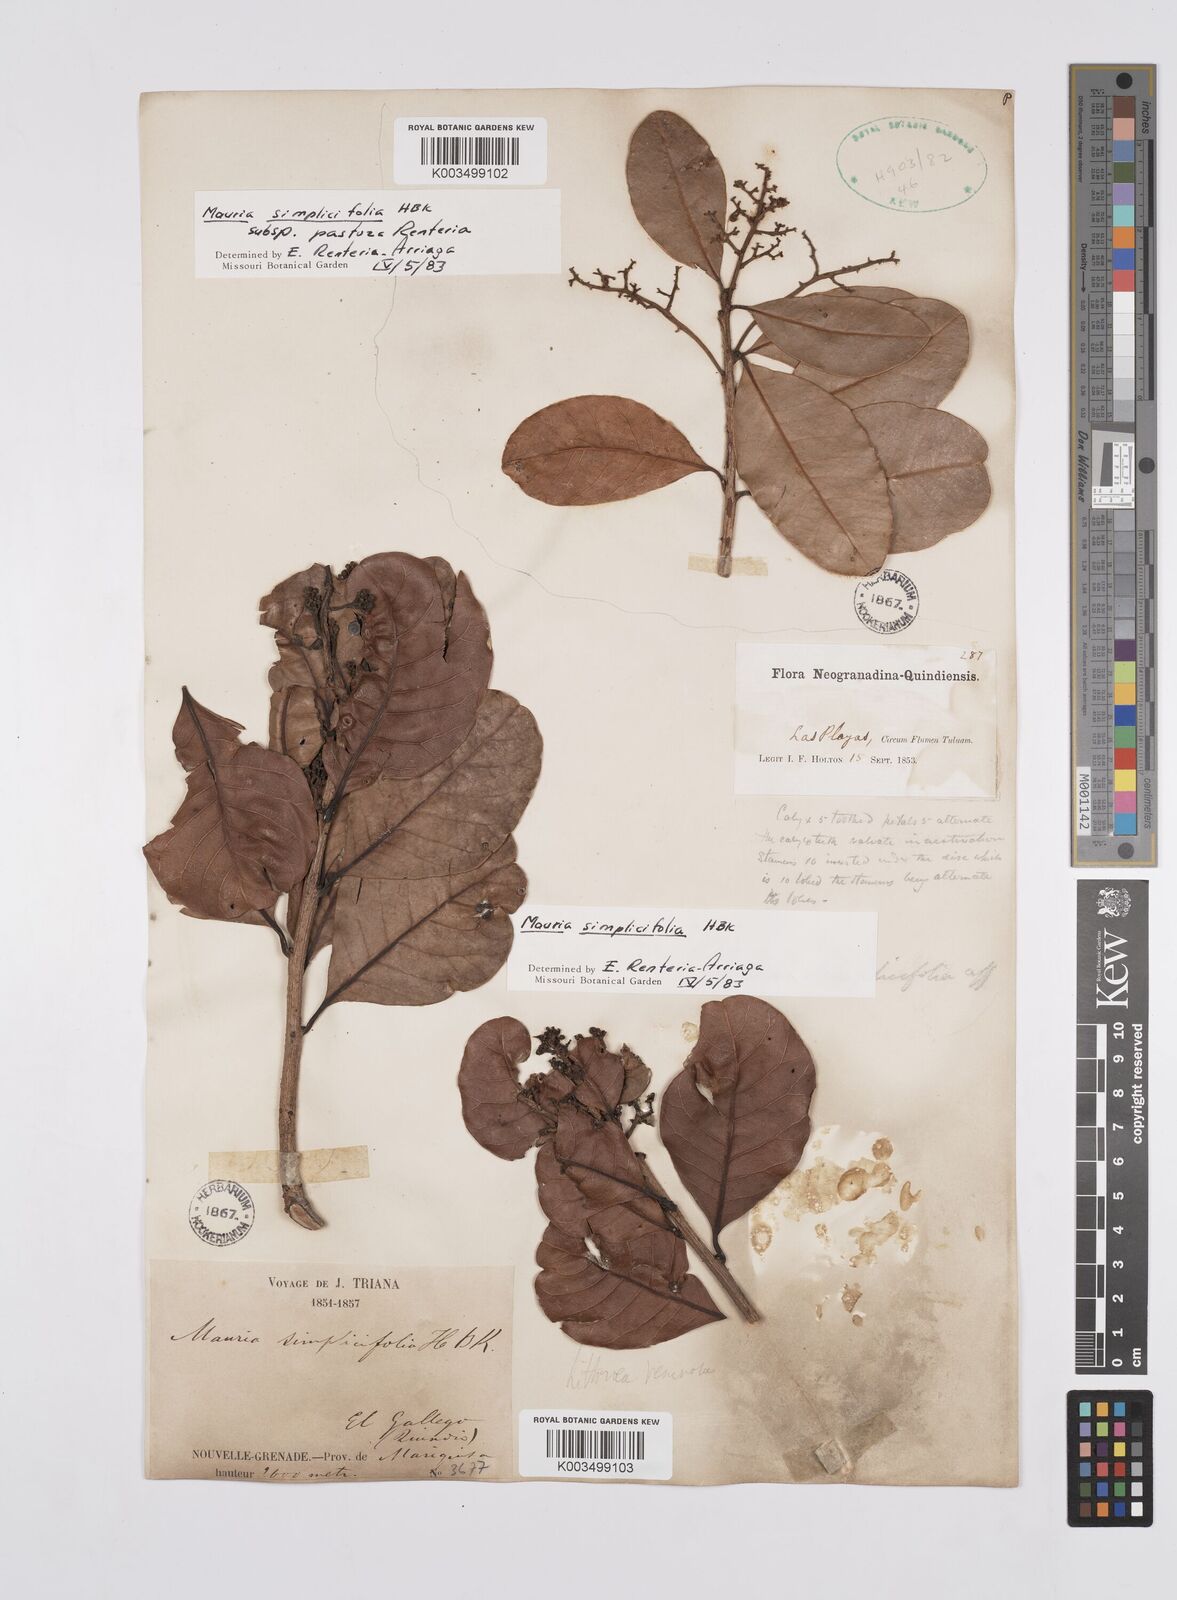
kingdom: Plantae
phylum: Tracheophyta
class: Magnoliopsida
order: Sapindales
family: Anacardiaceae
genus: Mauria
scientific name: Mauria simplicifolia
